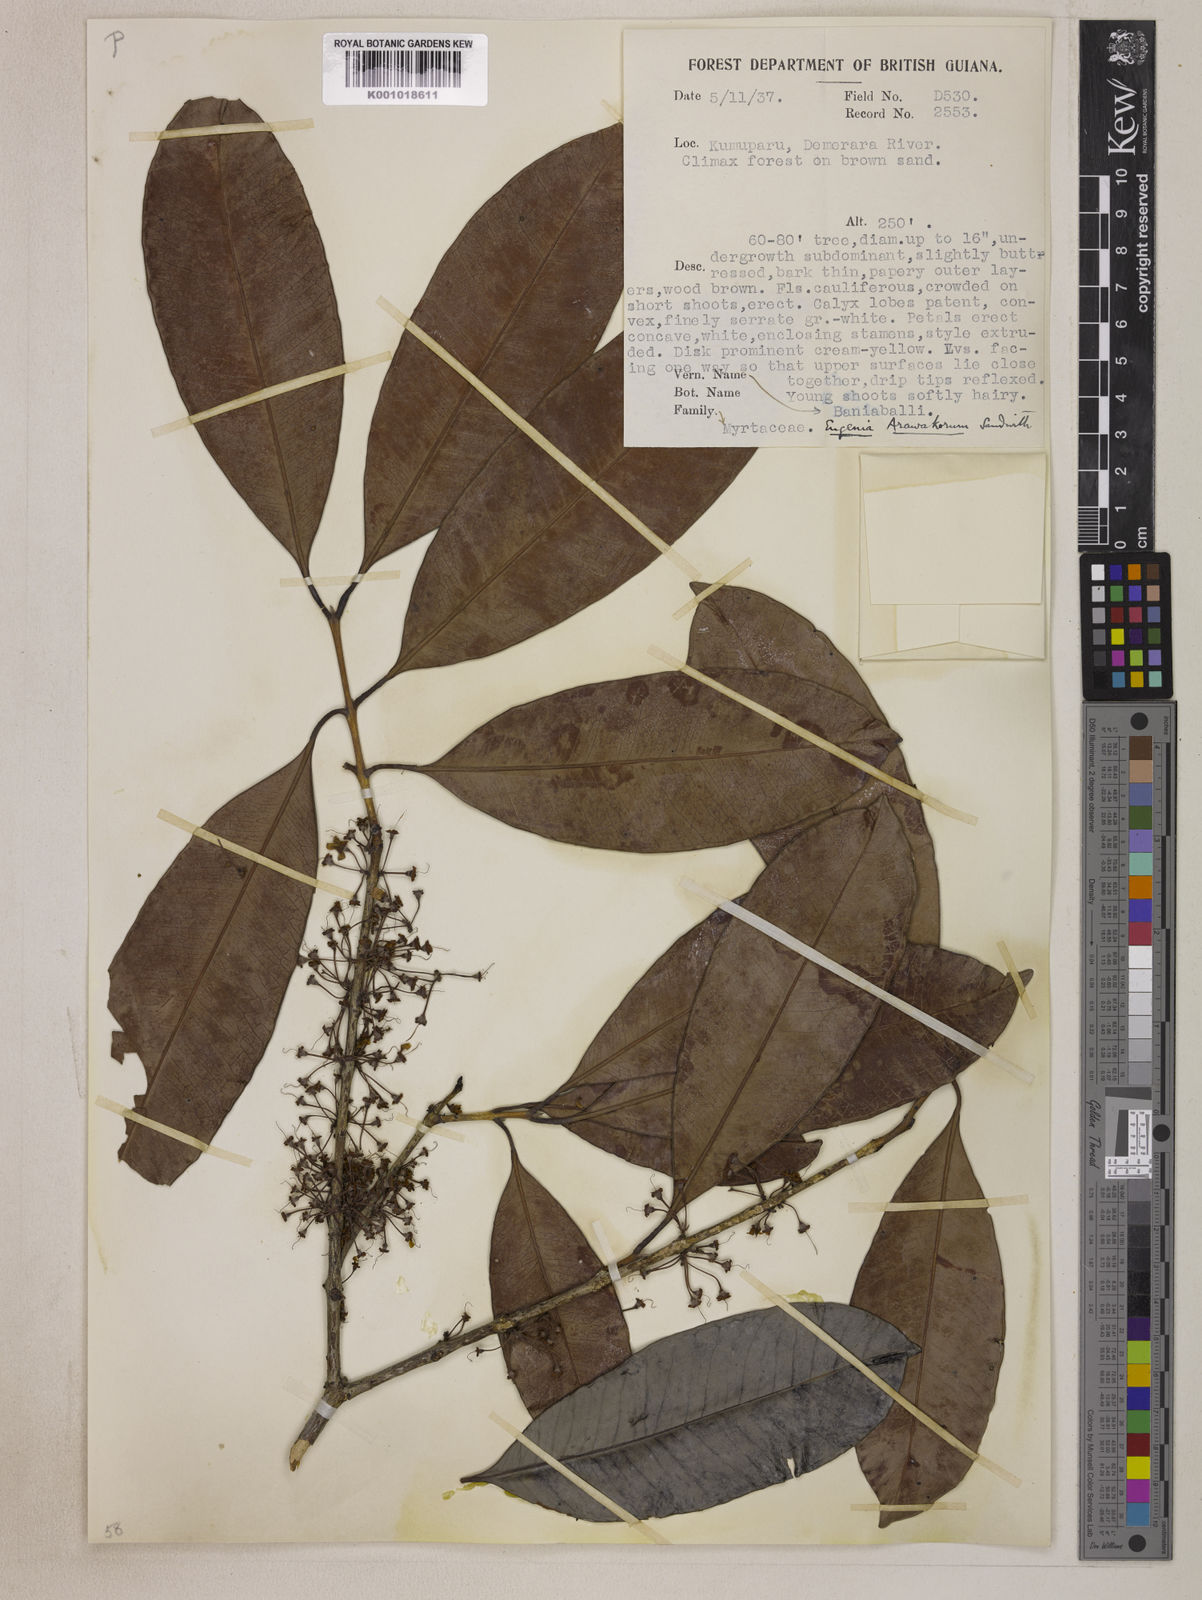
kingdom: Plantae
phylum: Tracheophyta
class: Magnoliopsida
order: Myrtales
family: Myrtaceae
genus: Eugenia
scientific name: Eugenia arawakorum
